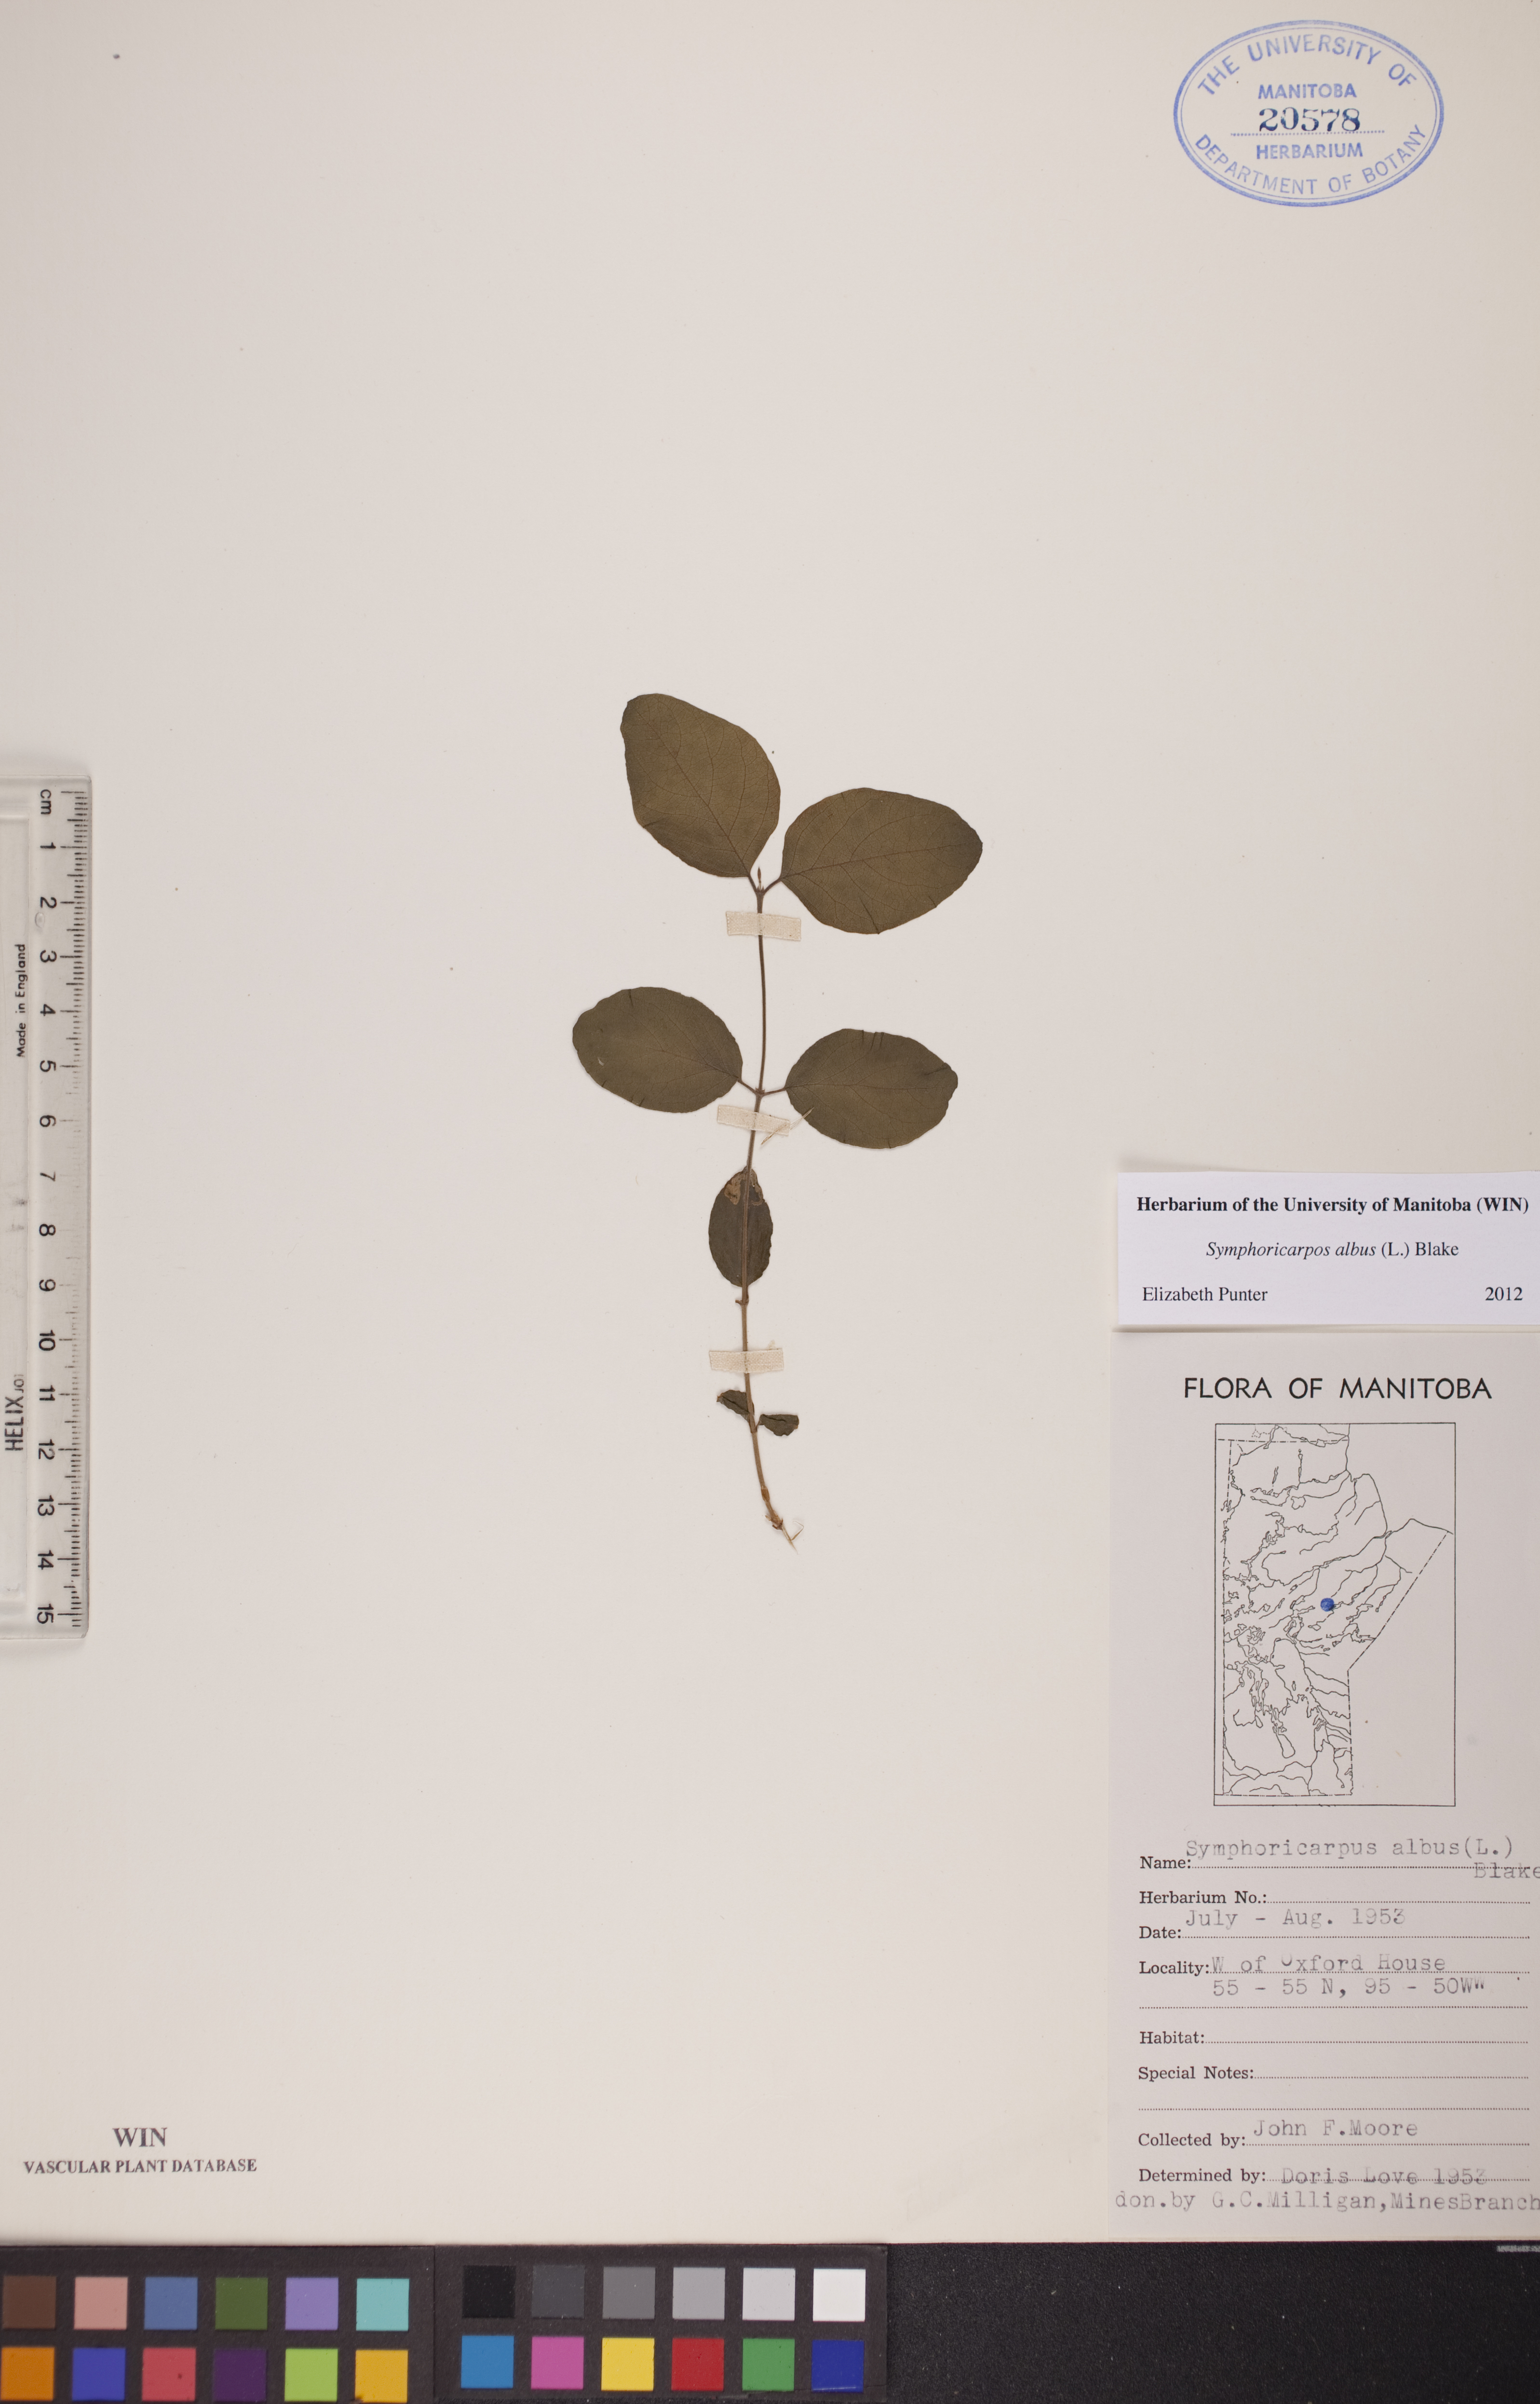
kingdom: Plantae
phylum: Tracheophyta
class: Magnoliopsida
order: Dipsacales
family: Caprifoliaceae
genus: Symphoricarpos
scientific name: Symphoricarpos albus
